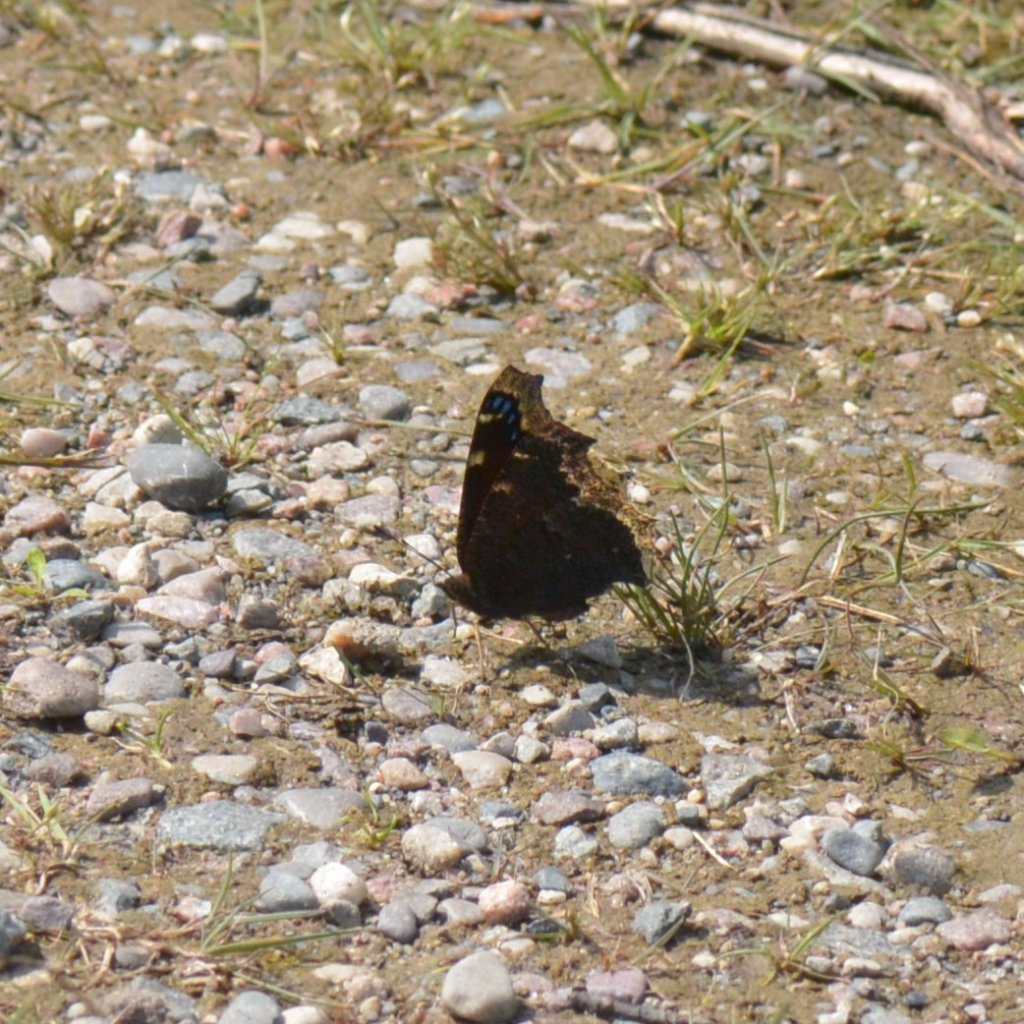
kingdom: Animalia
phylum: Arthropoda
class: Insecta
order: Lepidoptera
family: Nymphalidae
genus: Nymphalis
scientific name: Nymphalis antiopa
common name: Mourning Cloak
